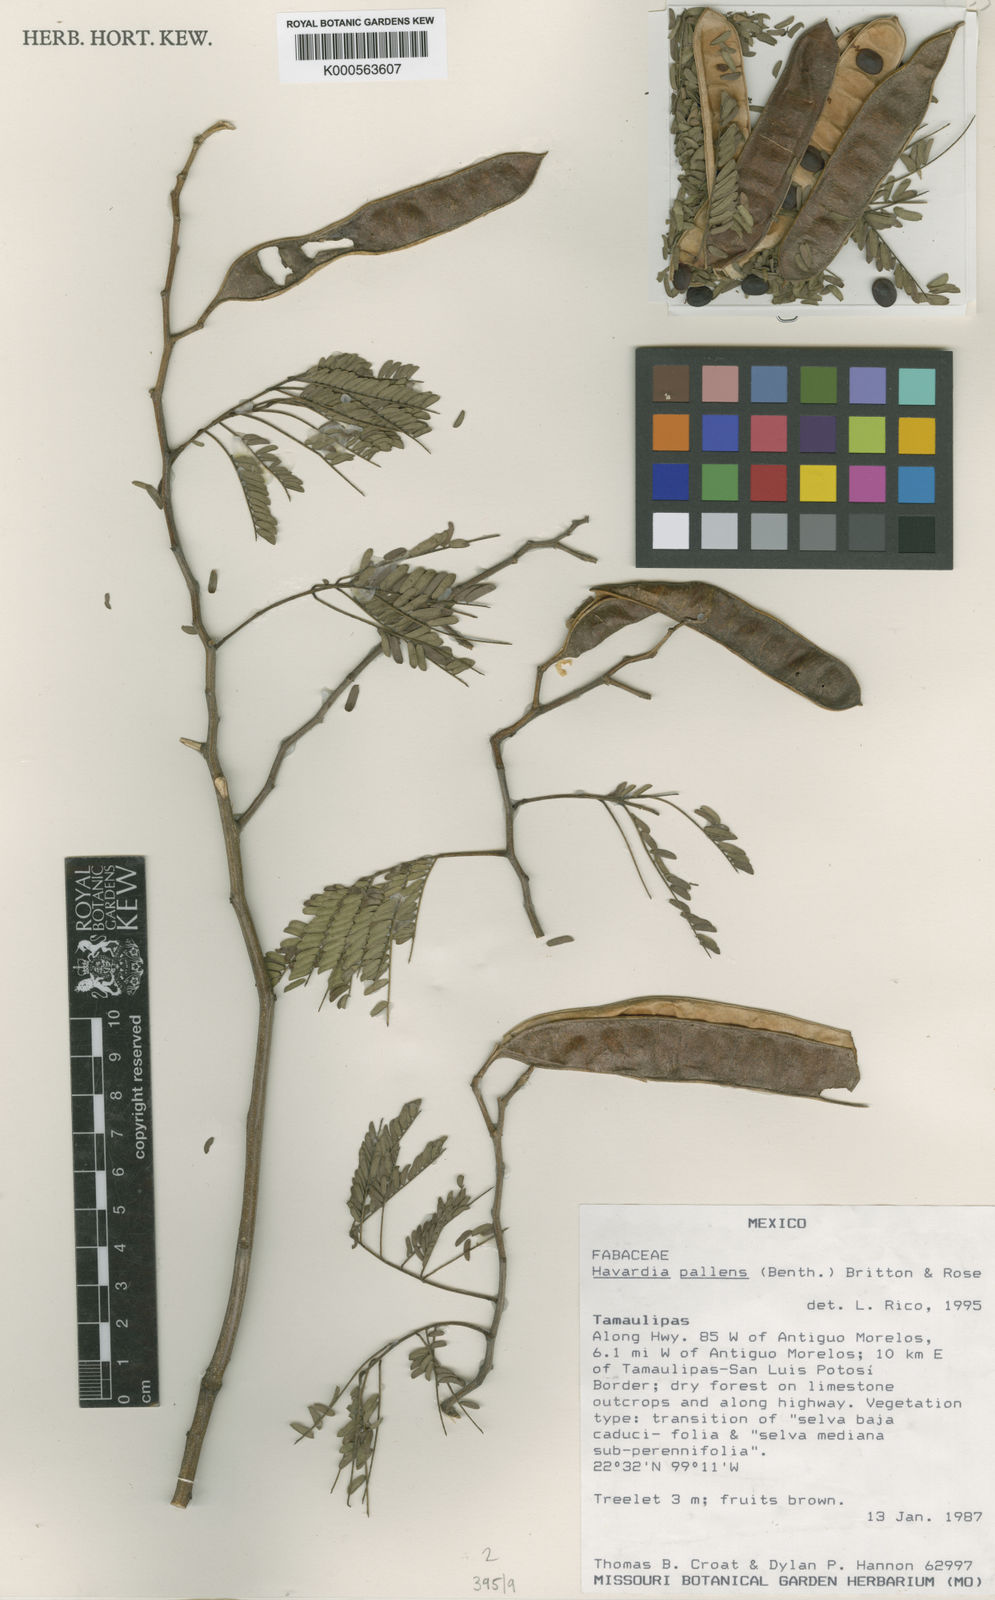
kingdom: Plantae
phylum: Tracheophyta
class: Magnoliopsida
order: Fabales
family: Fabaceae
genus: Havardia
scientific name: Havardia pallens
